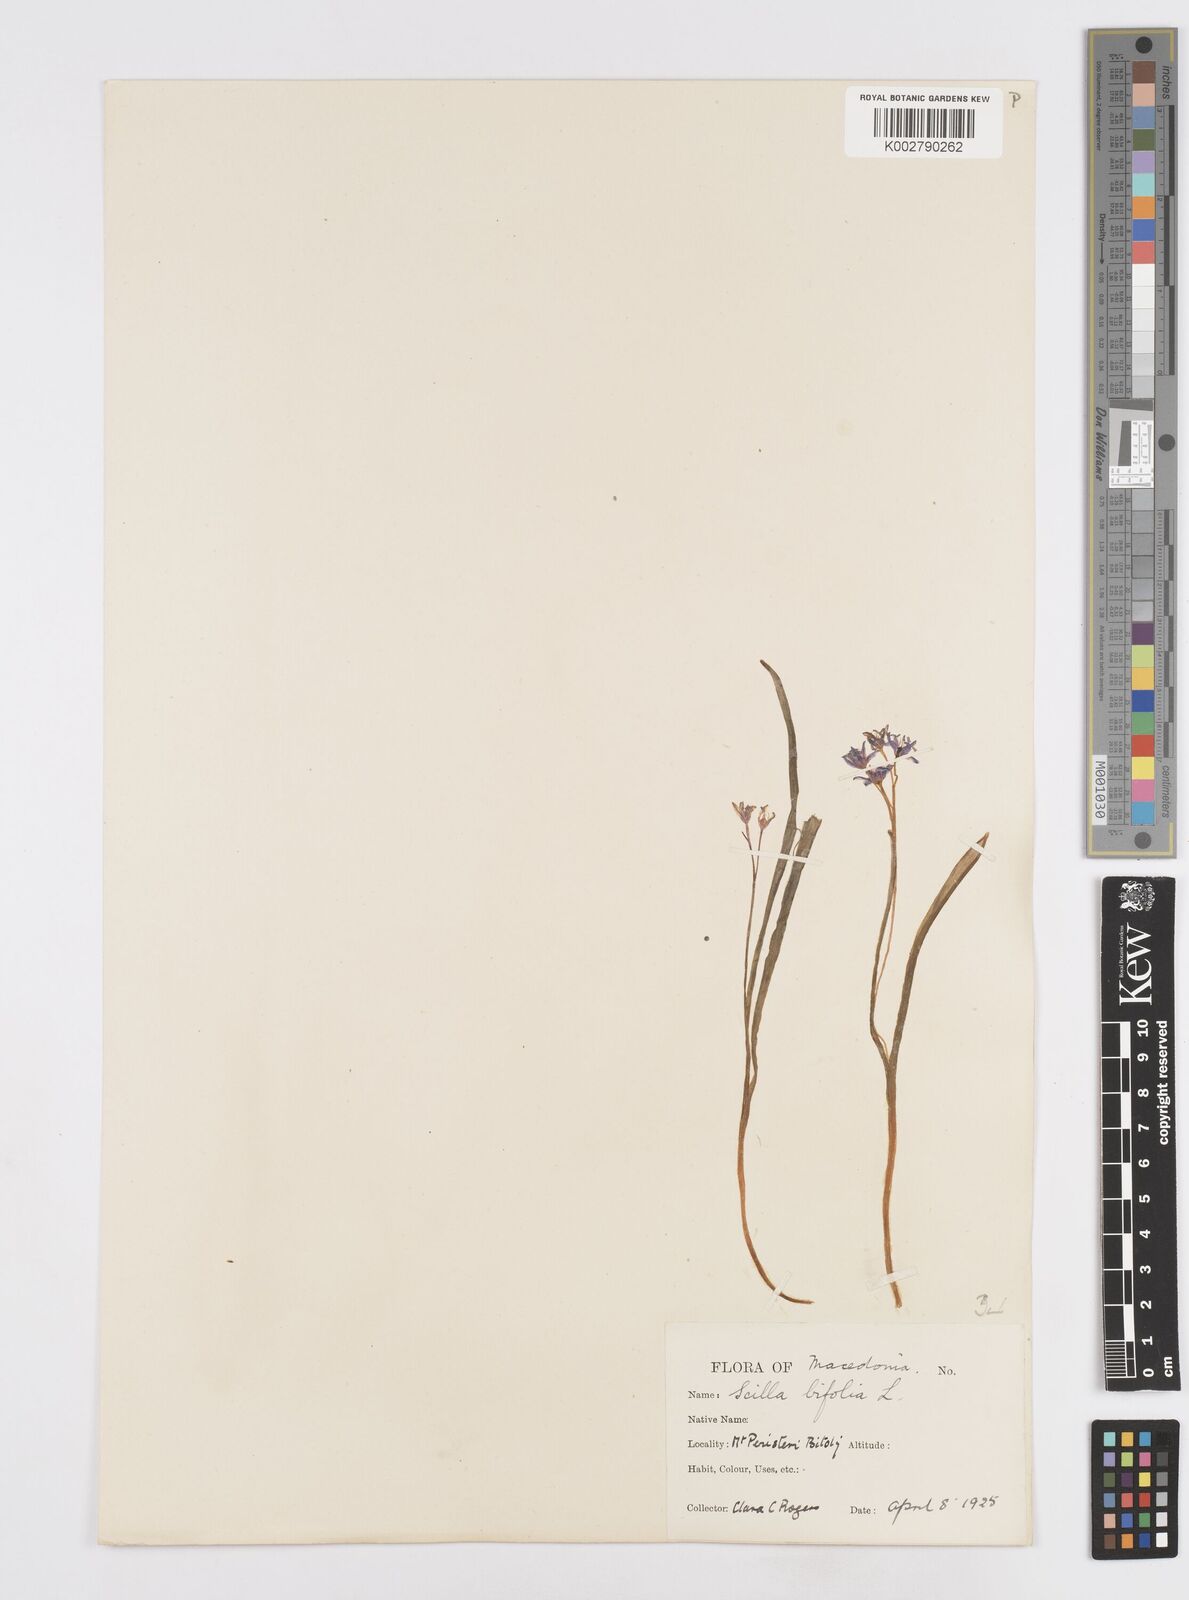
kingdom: Plantae
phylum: Tracheophyta
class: Liliopsida
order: Asparagales
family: Asparagaceae
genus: Scilla
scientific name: Scilla bifolia
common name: Alpine squill
